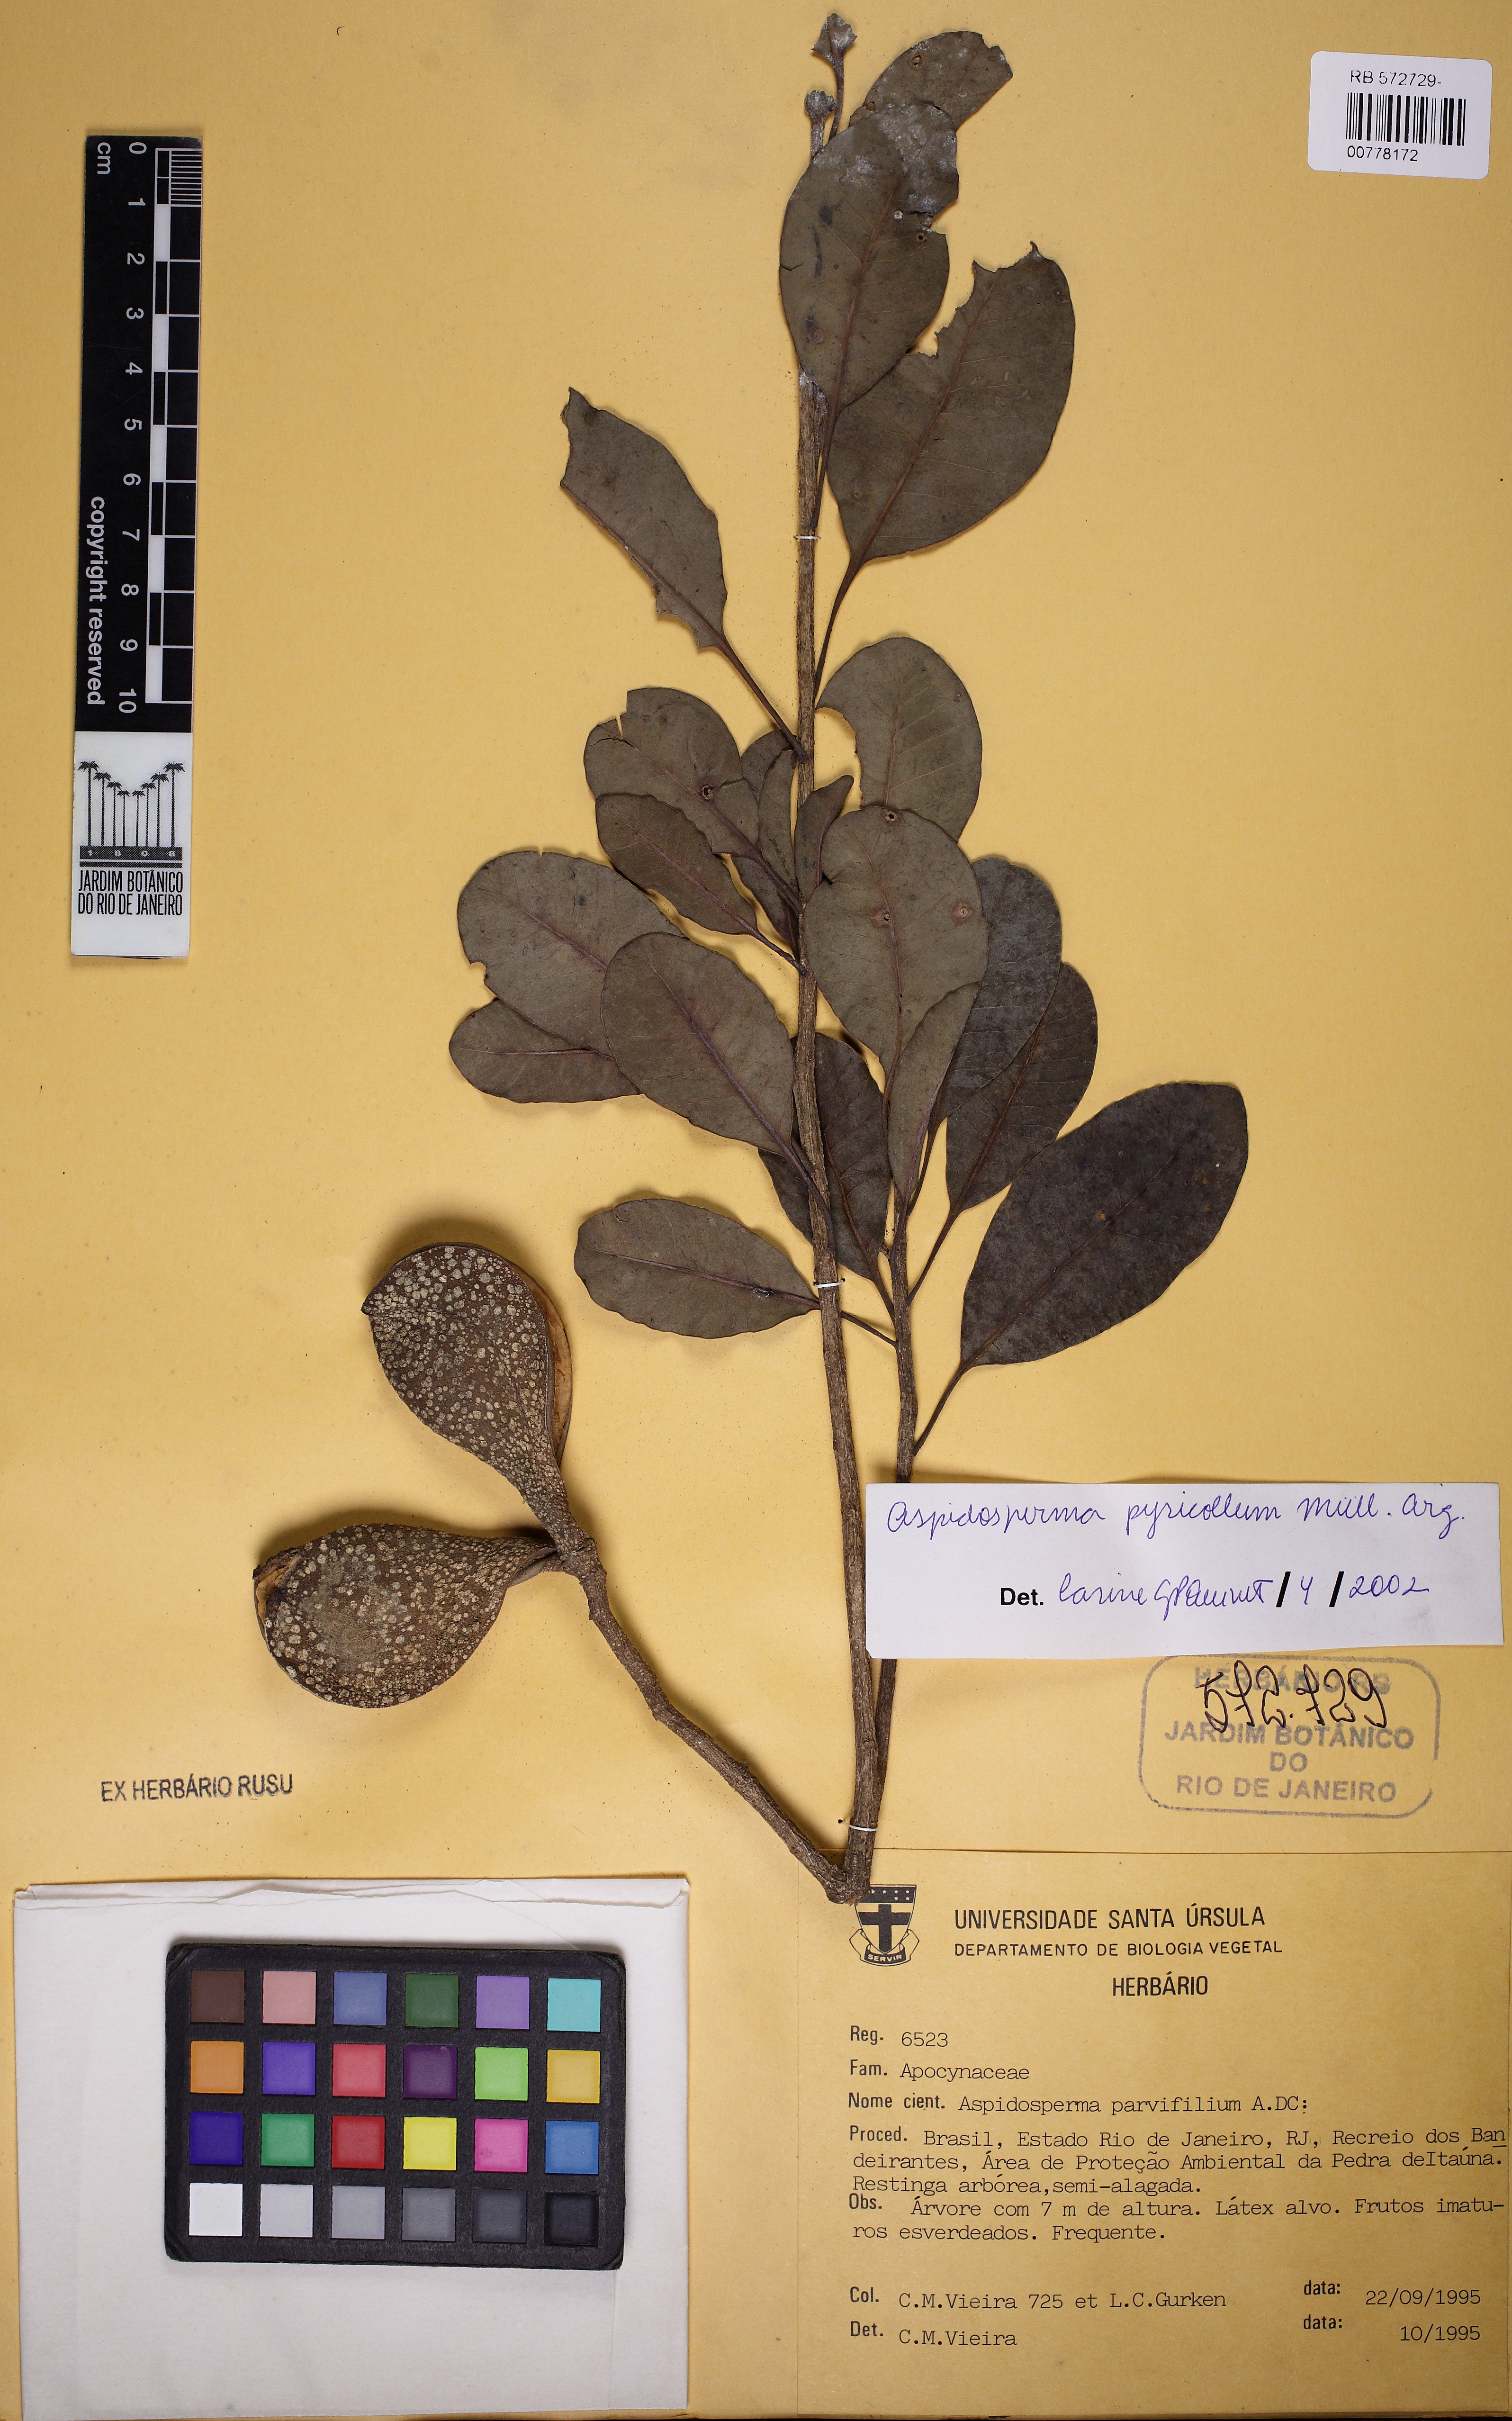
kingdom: Plantae
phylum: Tracheophyta
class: Magnoliopsida
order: Gentianales
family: Apocynaceae
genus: Aspidosperma
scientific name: Aspidosperma pyricollum
